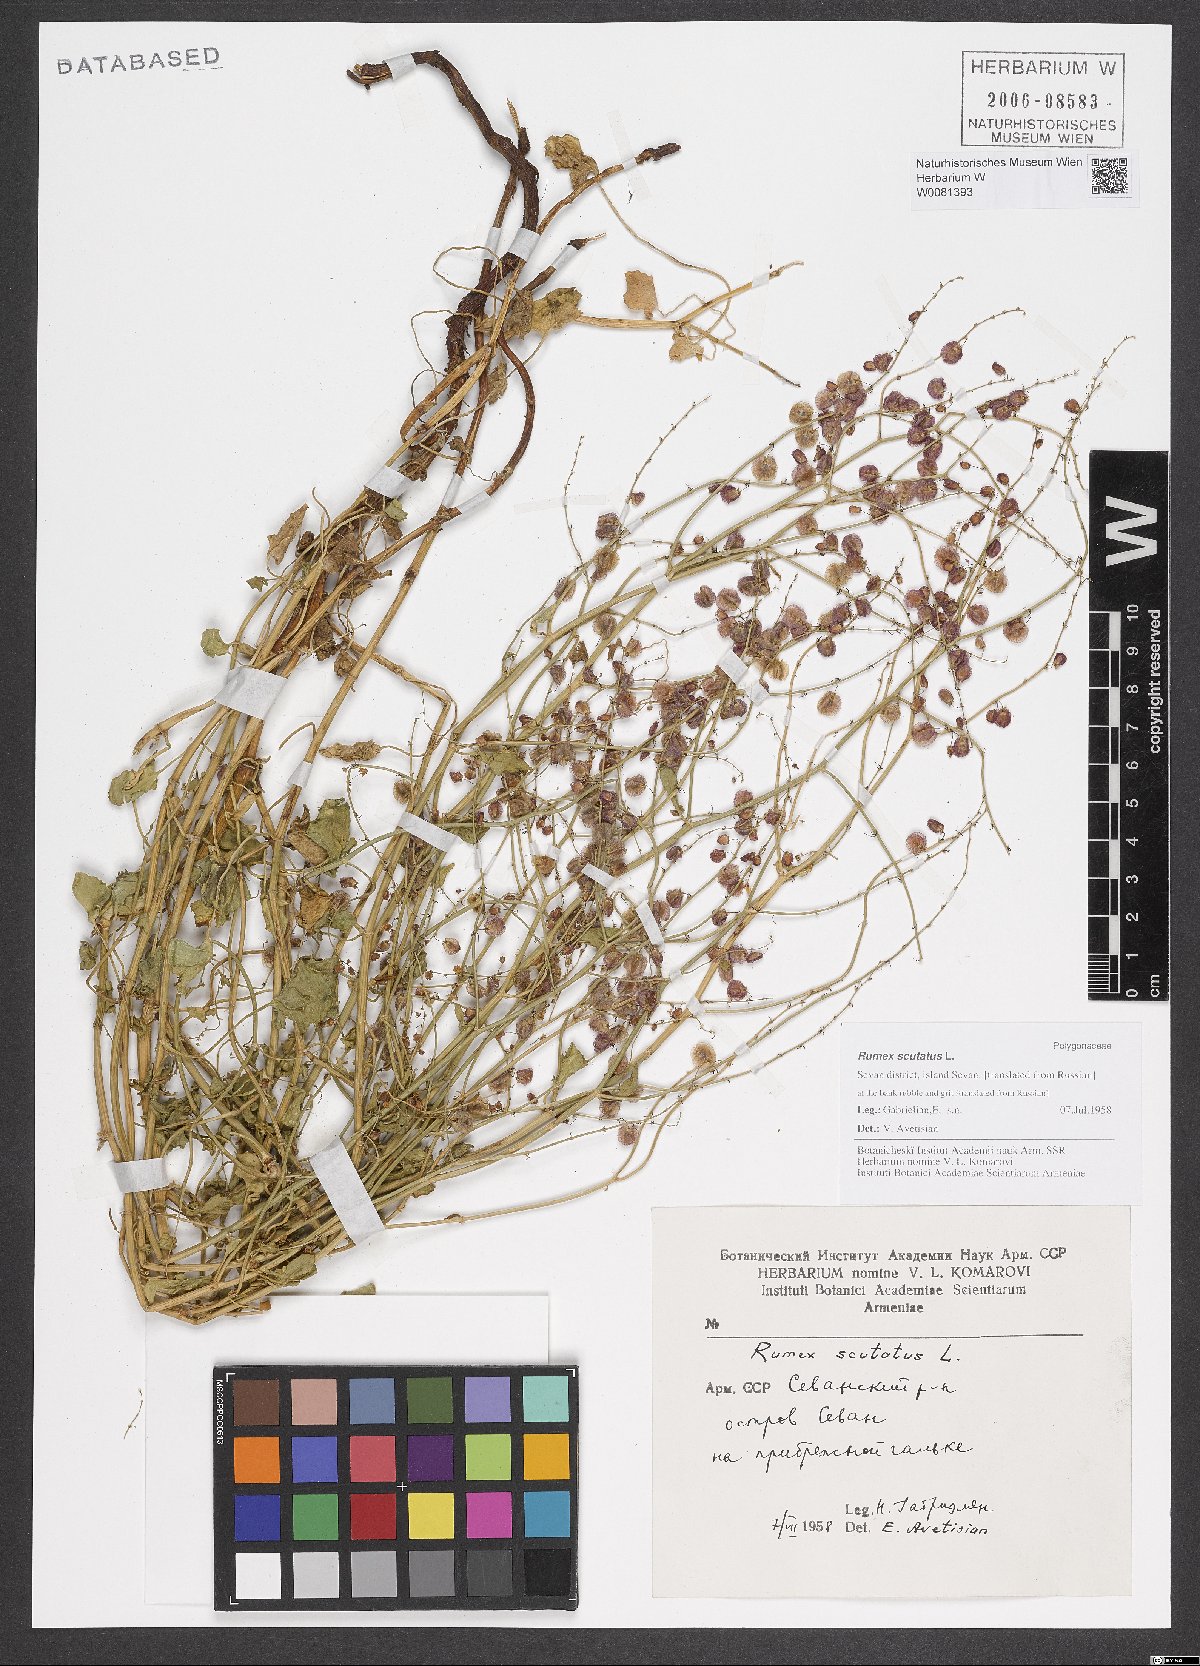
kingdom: Plantae
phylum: Tracheophyta
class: Magnoliopsida
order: Caryophyllales
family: Polygonaceae
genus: Rumex
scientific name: Rumex scutatus
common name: French sorrel
